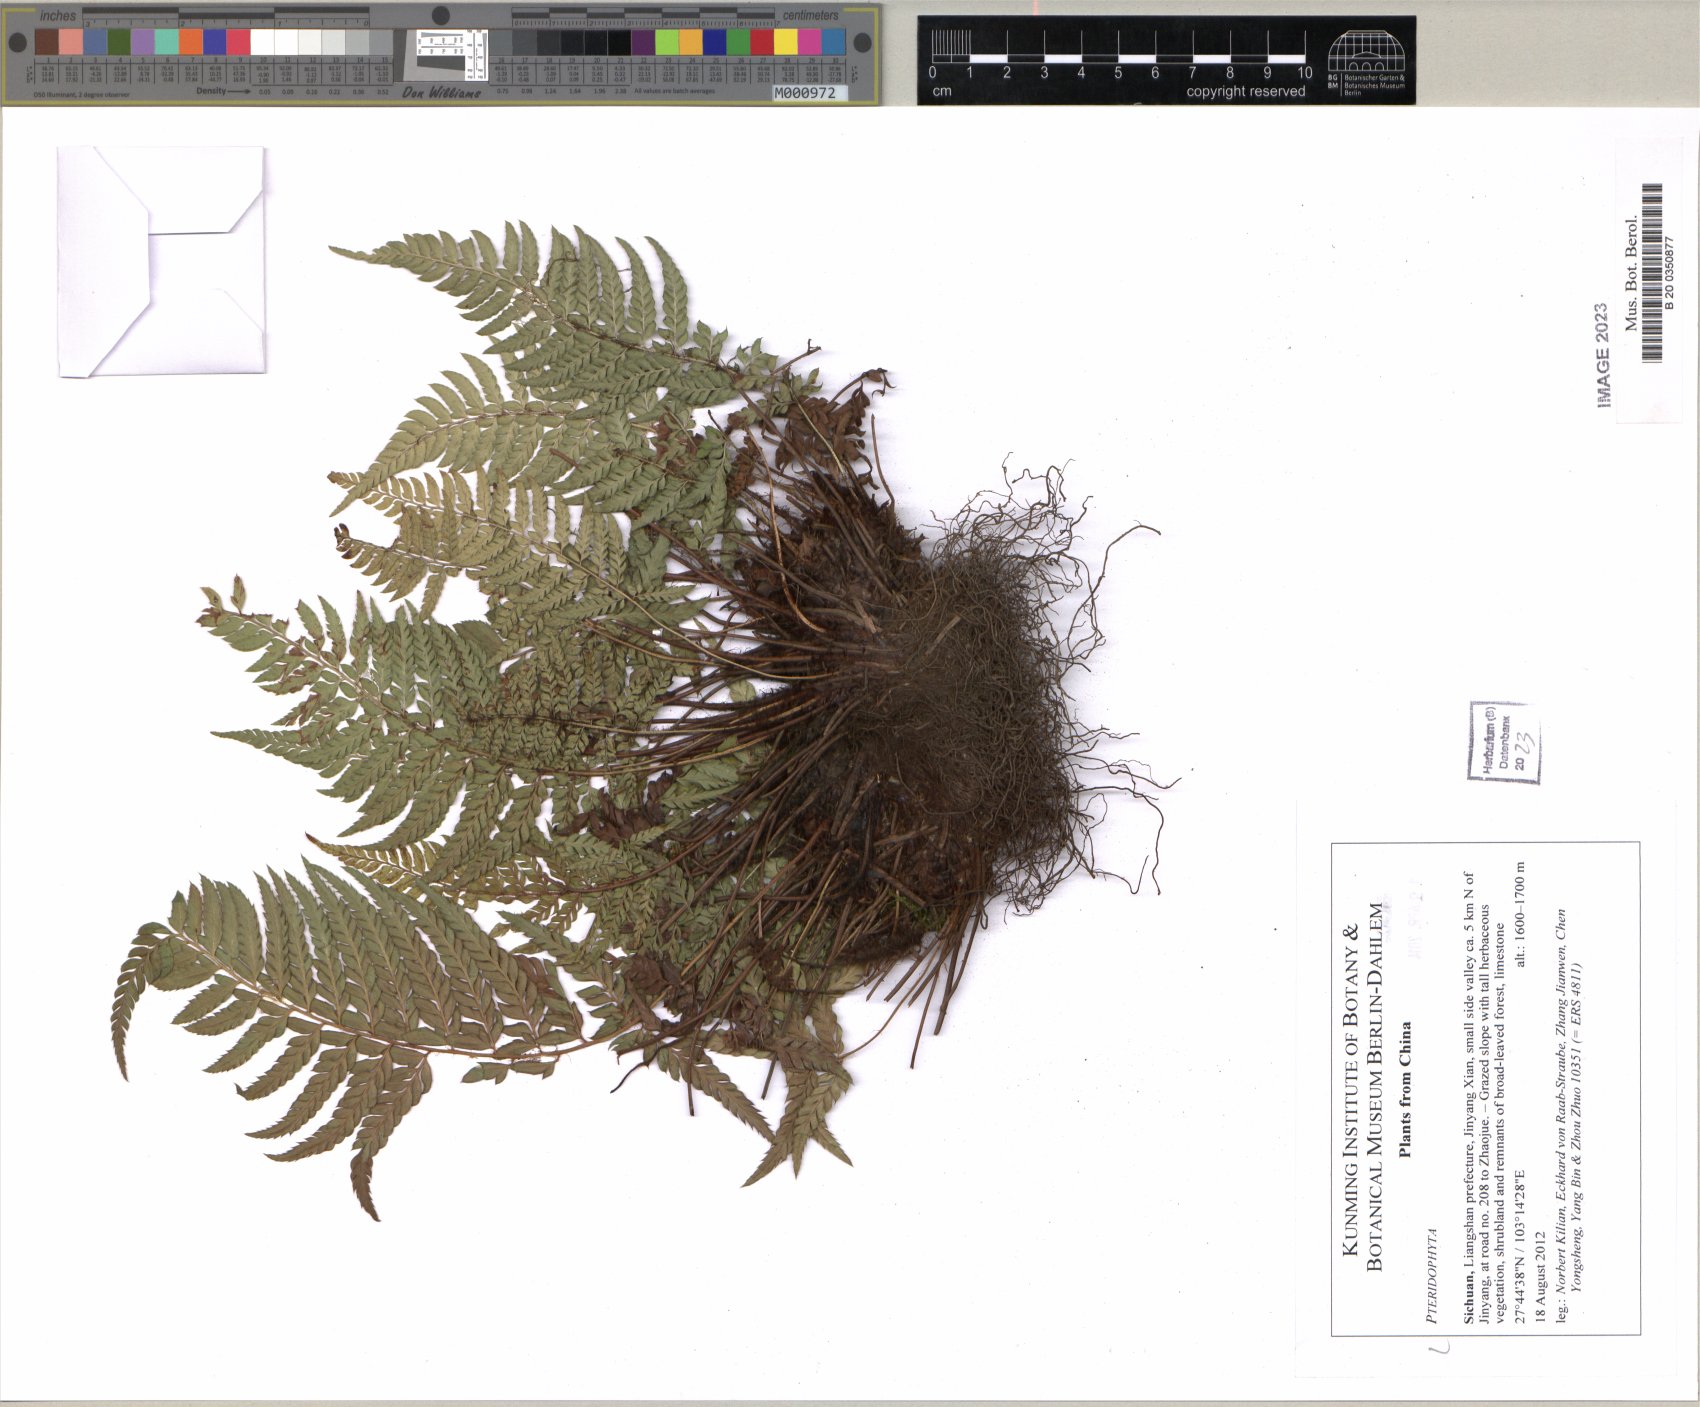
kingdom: Plantae
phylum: Tracheophyta
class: Polypodiopsida
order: Polypodiales
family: Dryopteridaceae
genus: Polystichum
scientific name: Polystichum
